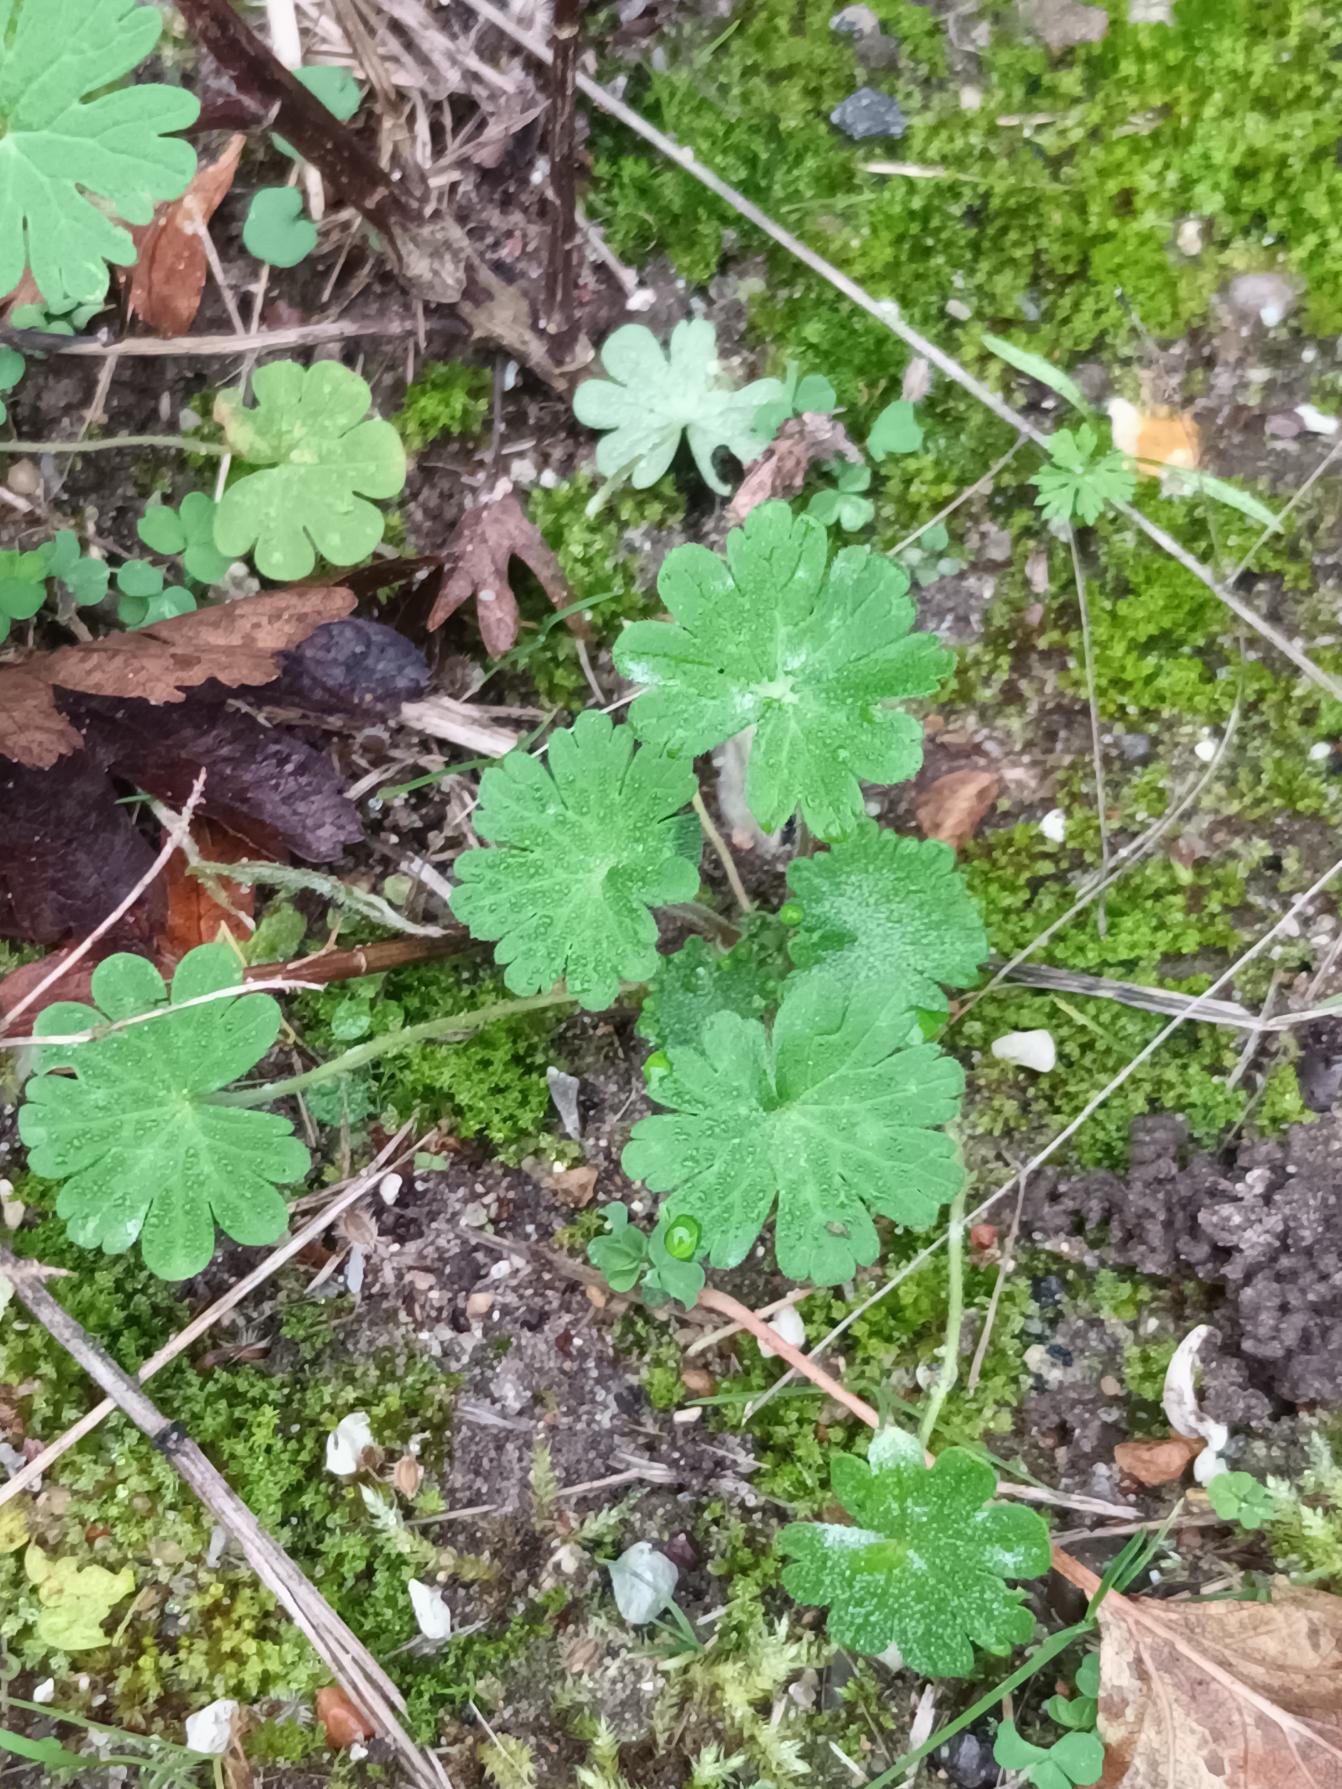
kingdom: Plantae
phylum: Tracheophyta
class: Magnoliopsida
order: Geraniales
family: Geraniaceae
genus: Geranium
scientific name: Geranium molle
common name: Blød storkenæb
